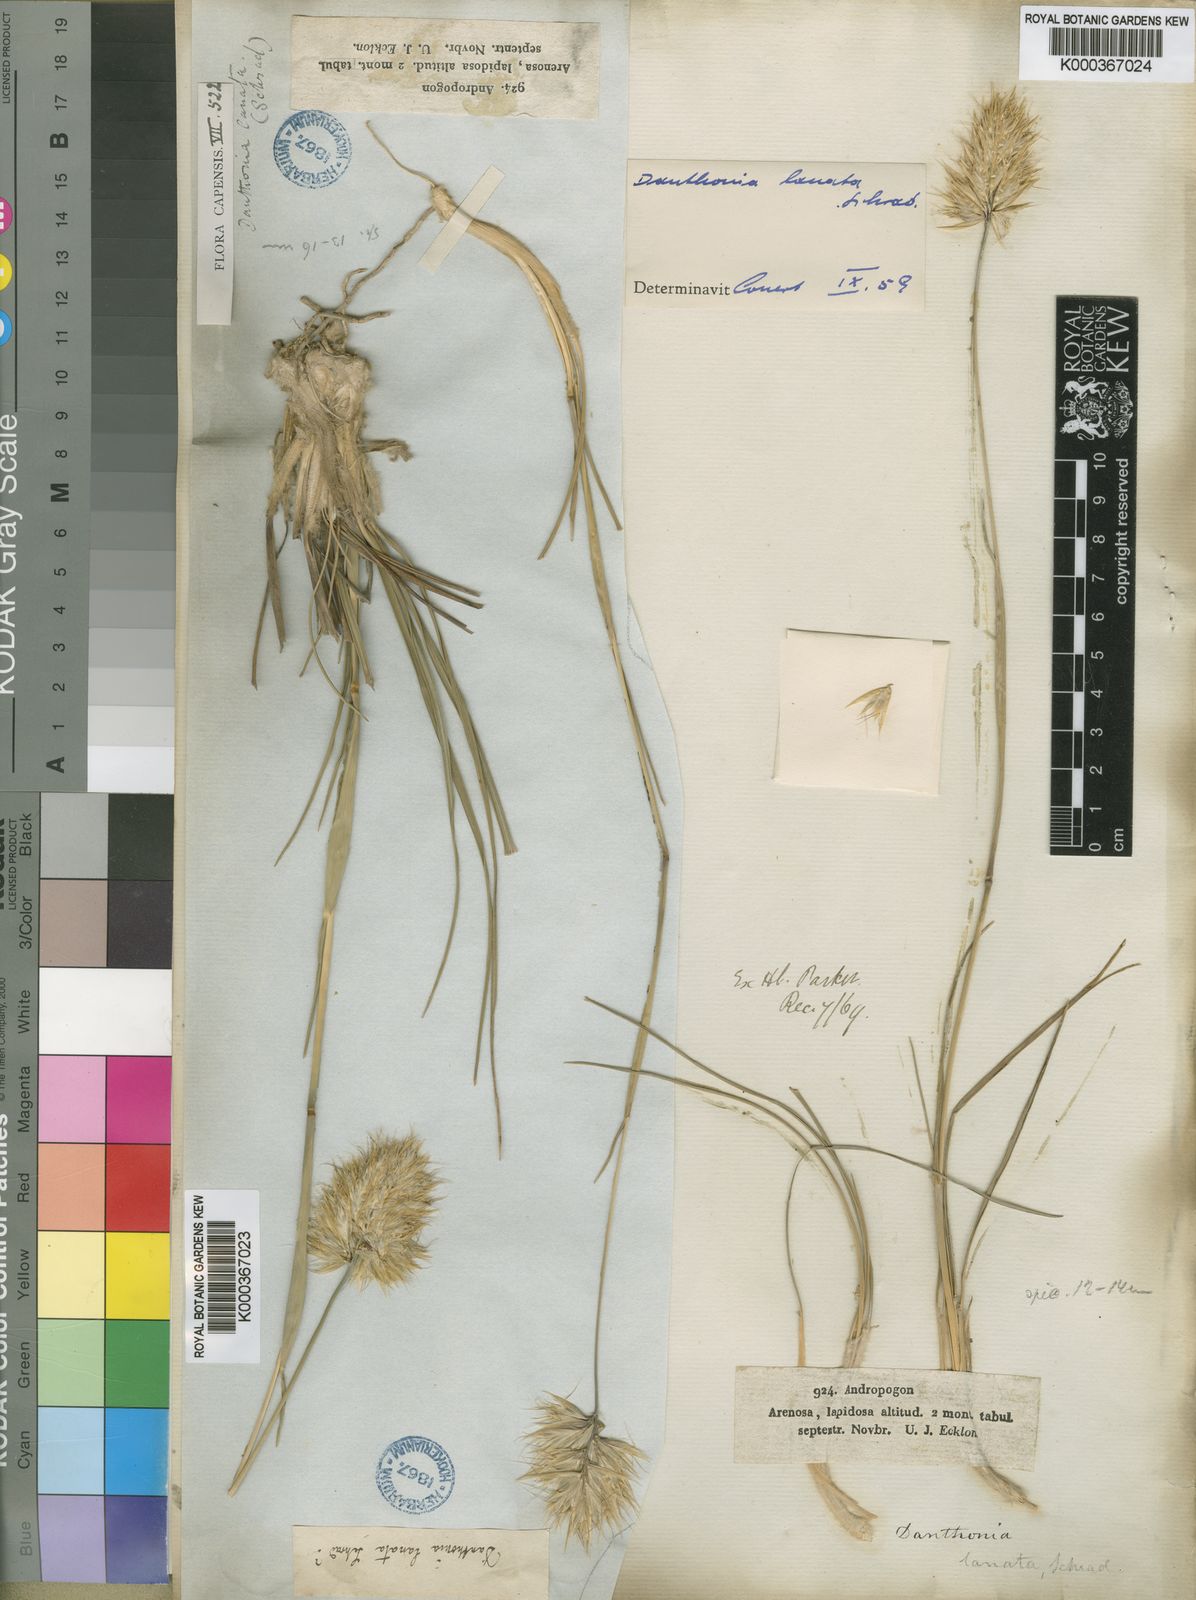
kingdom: Plantae
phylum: Tracheophyta
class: Liliopsida
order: Poales
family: Poaceae
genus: Rytidosperma
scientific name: Rytidosperma
